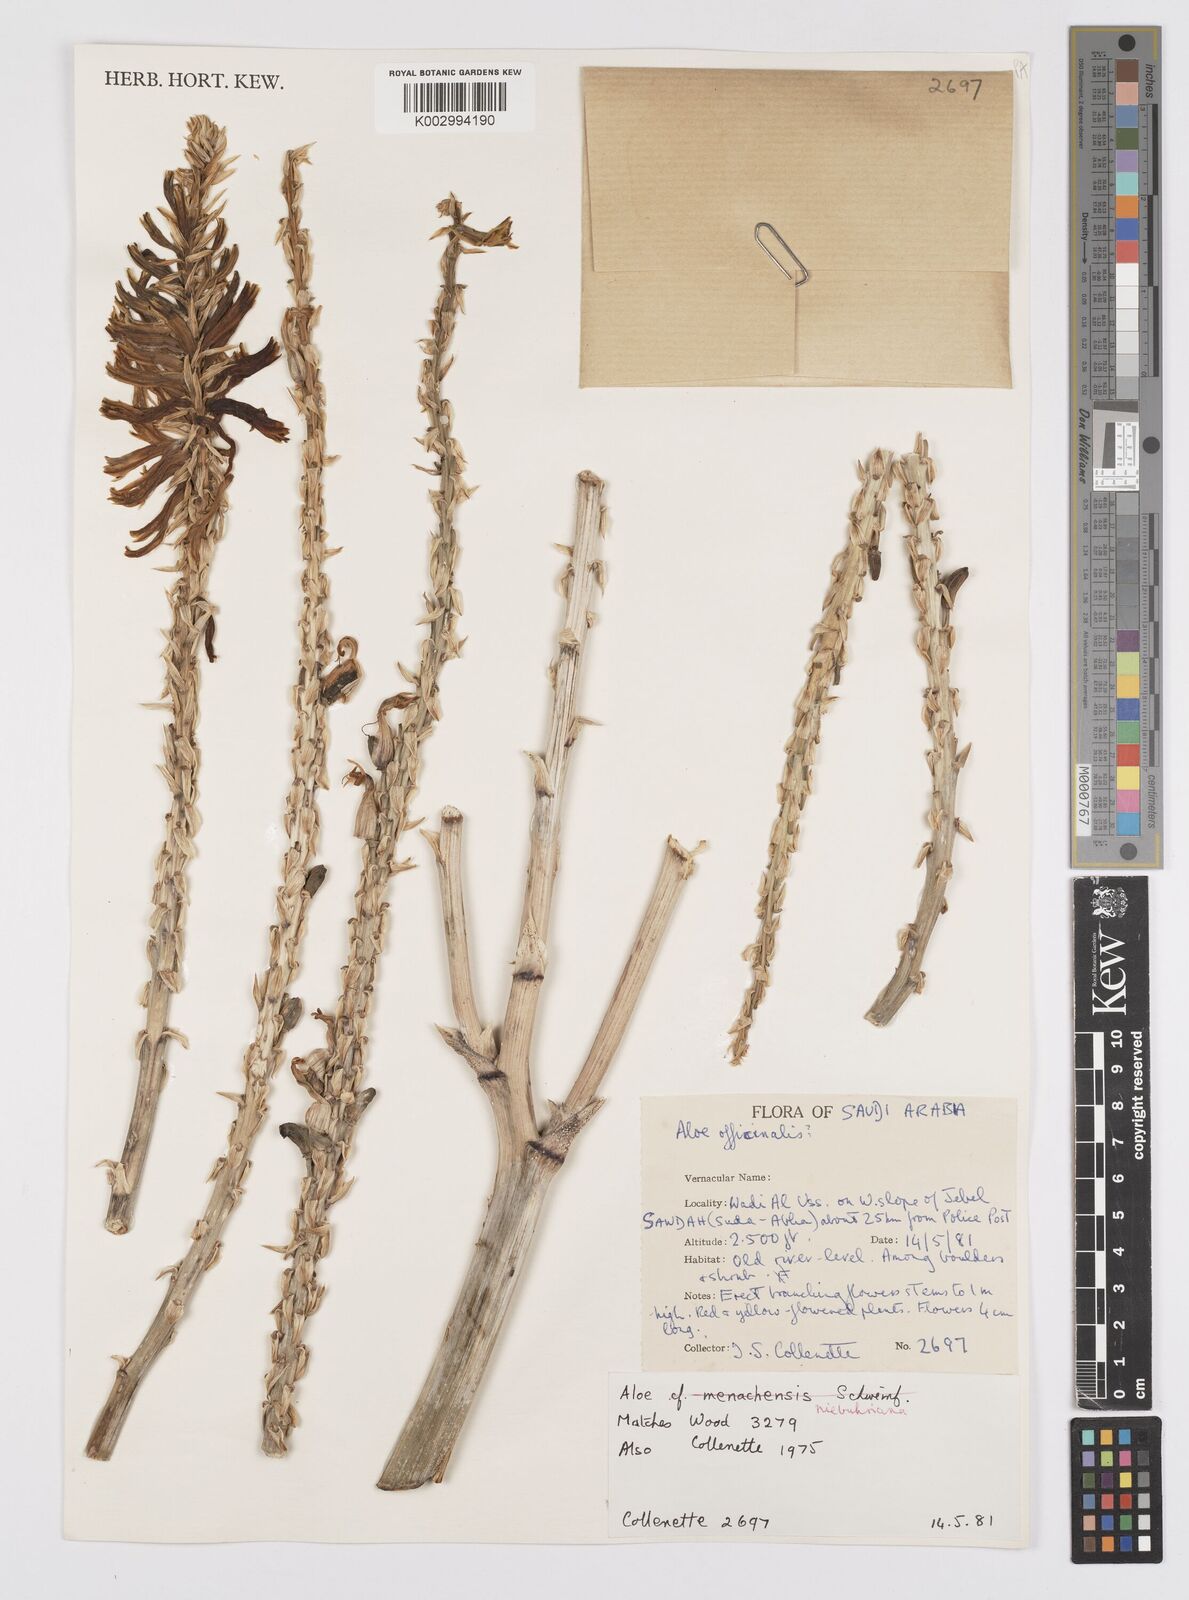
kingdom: Plantae
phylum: Tracheophyta
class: Liliopsida
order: Asparagales
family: Asphodelaceae
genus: Aloe
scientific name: Aloe niebuhriana
